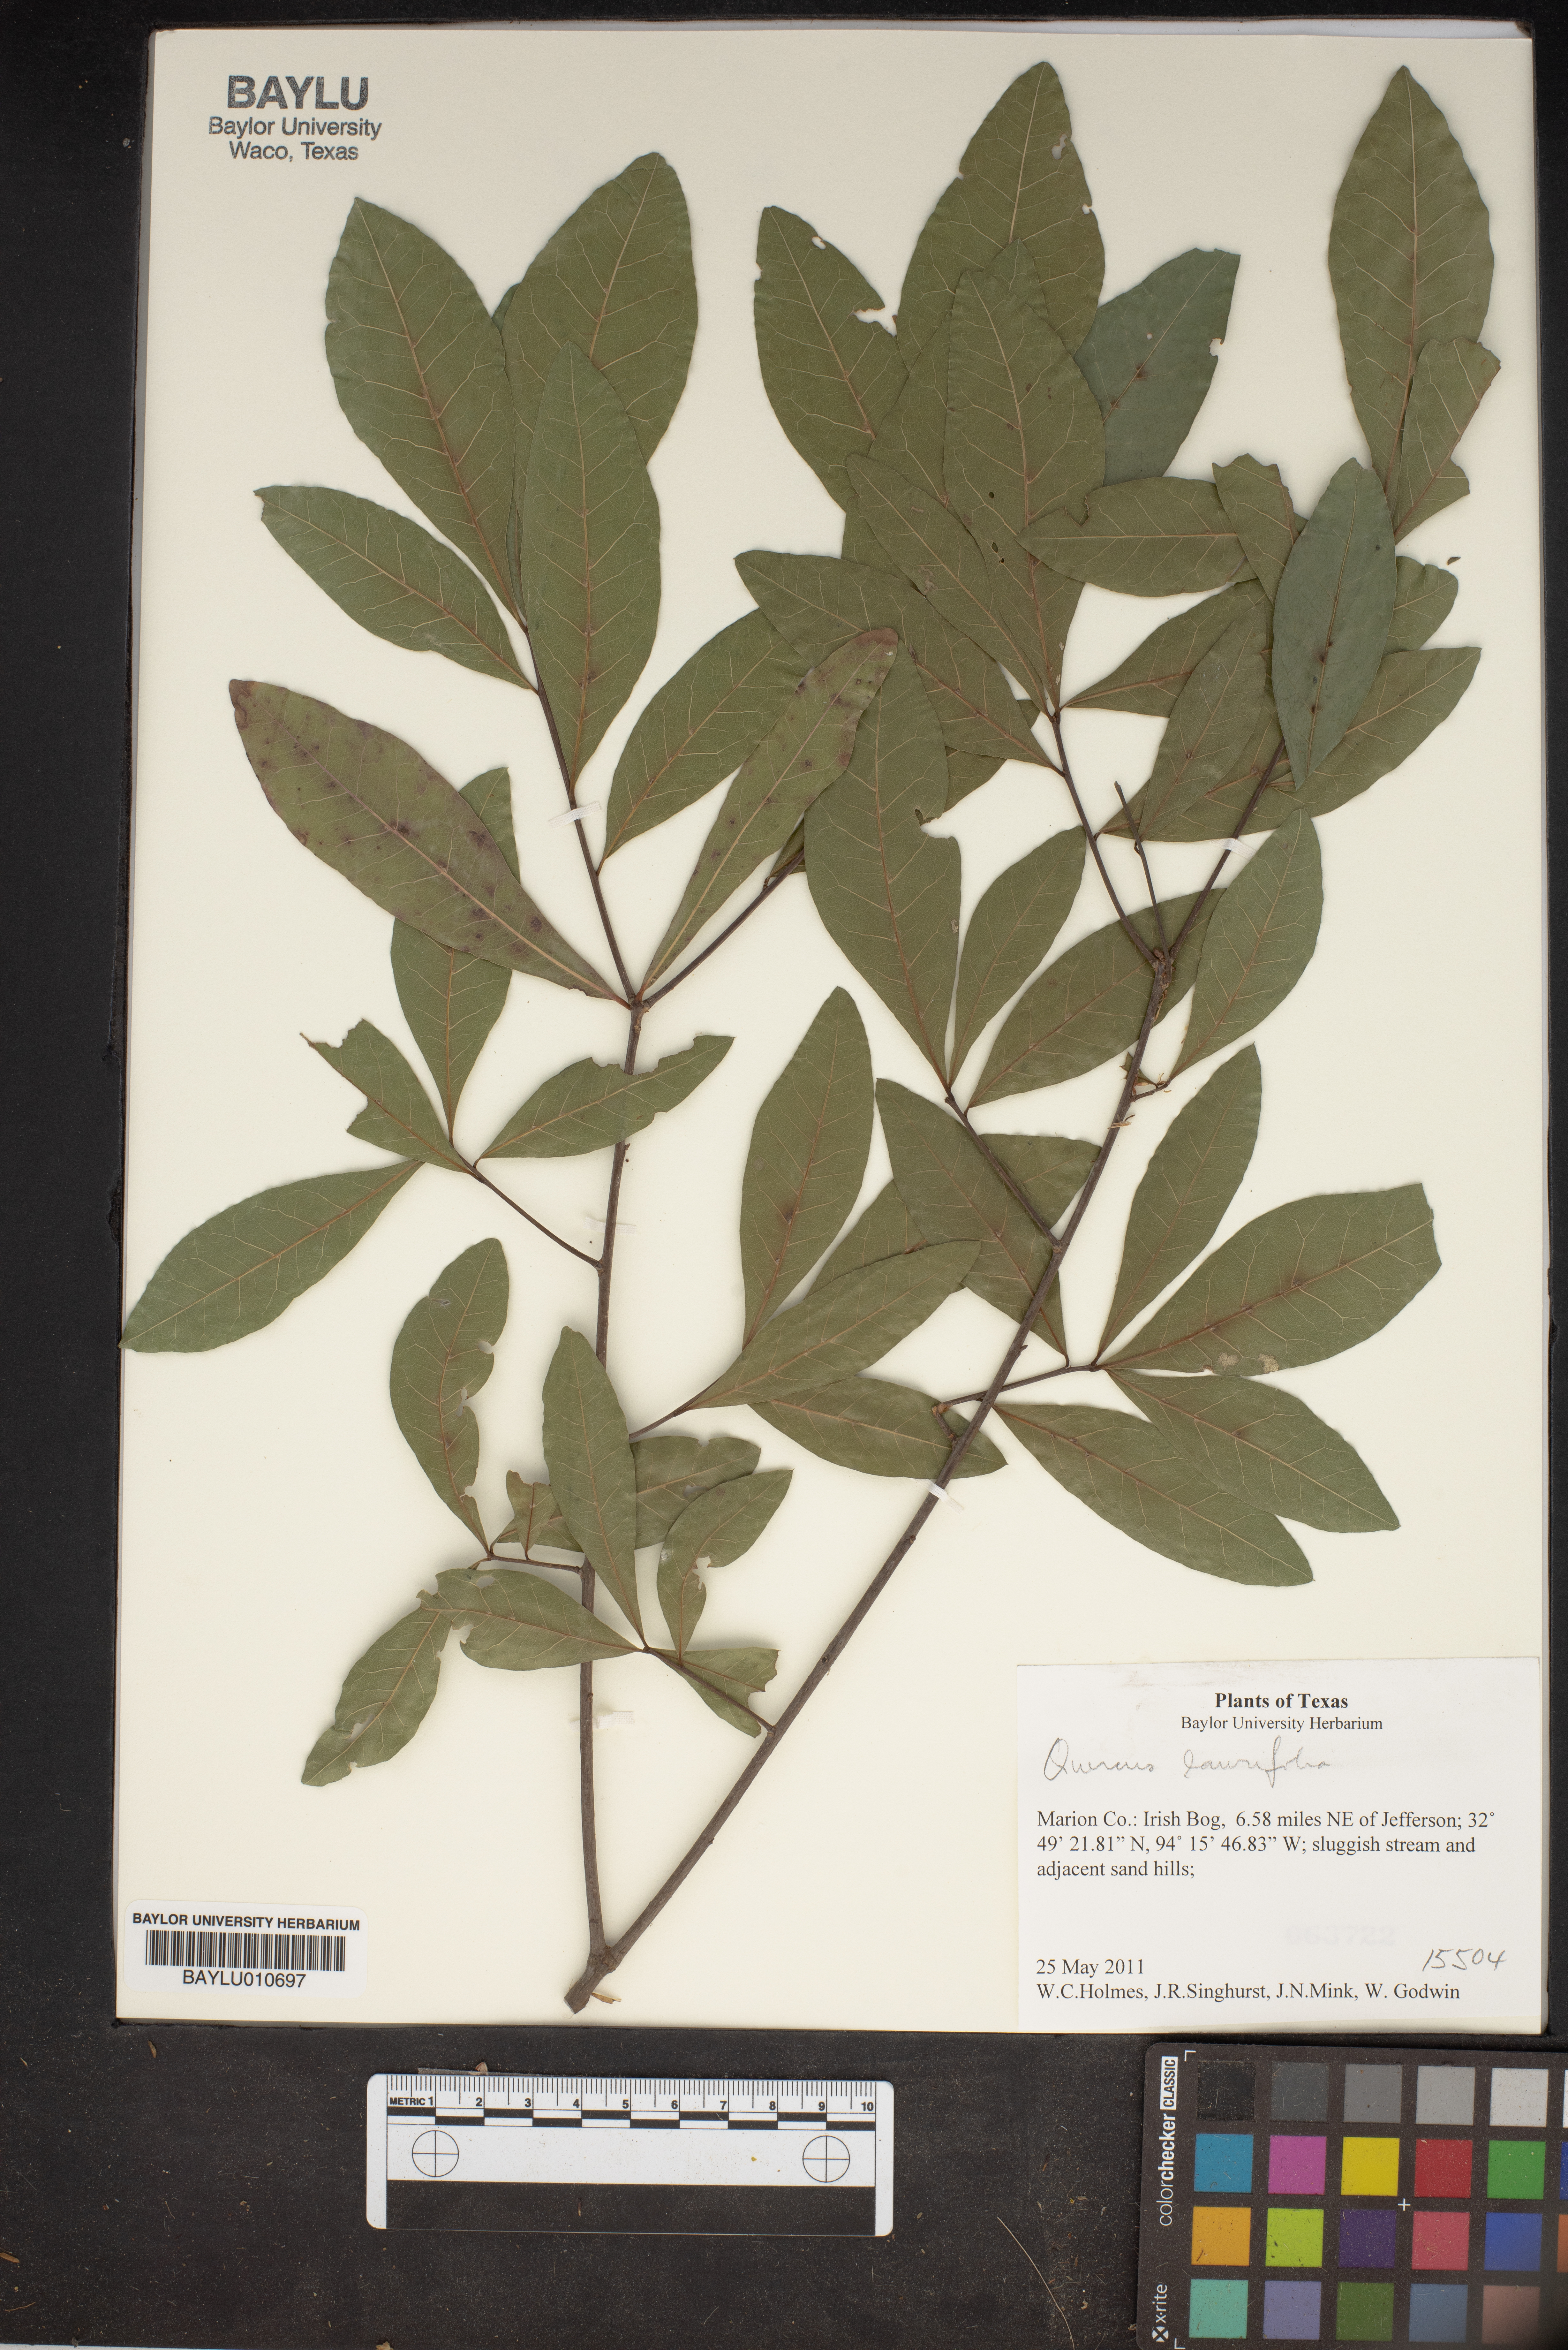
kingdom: Plantae
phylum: Tracheophyta
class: Magnoliopsida
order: Fagales
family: Fagaceae
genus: Quercus
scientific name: Quercus laurifolia
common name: Swamp laurel oak
